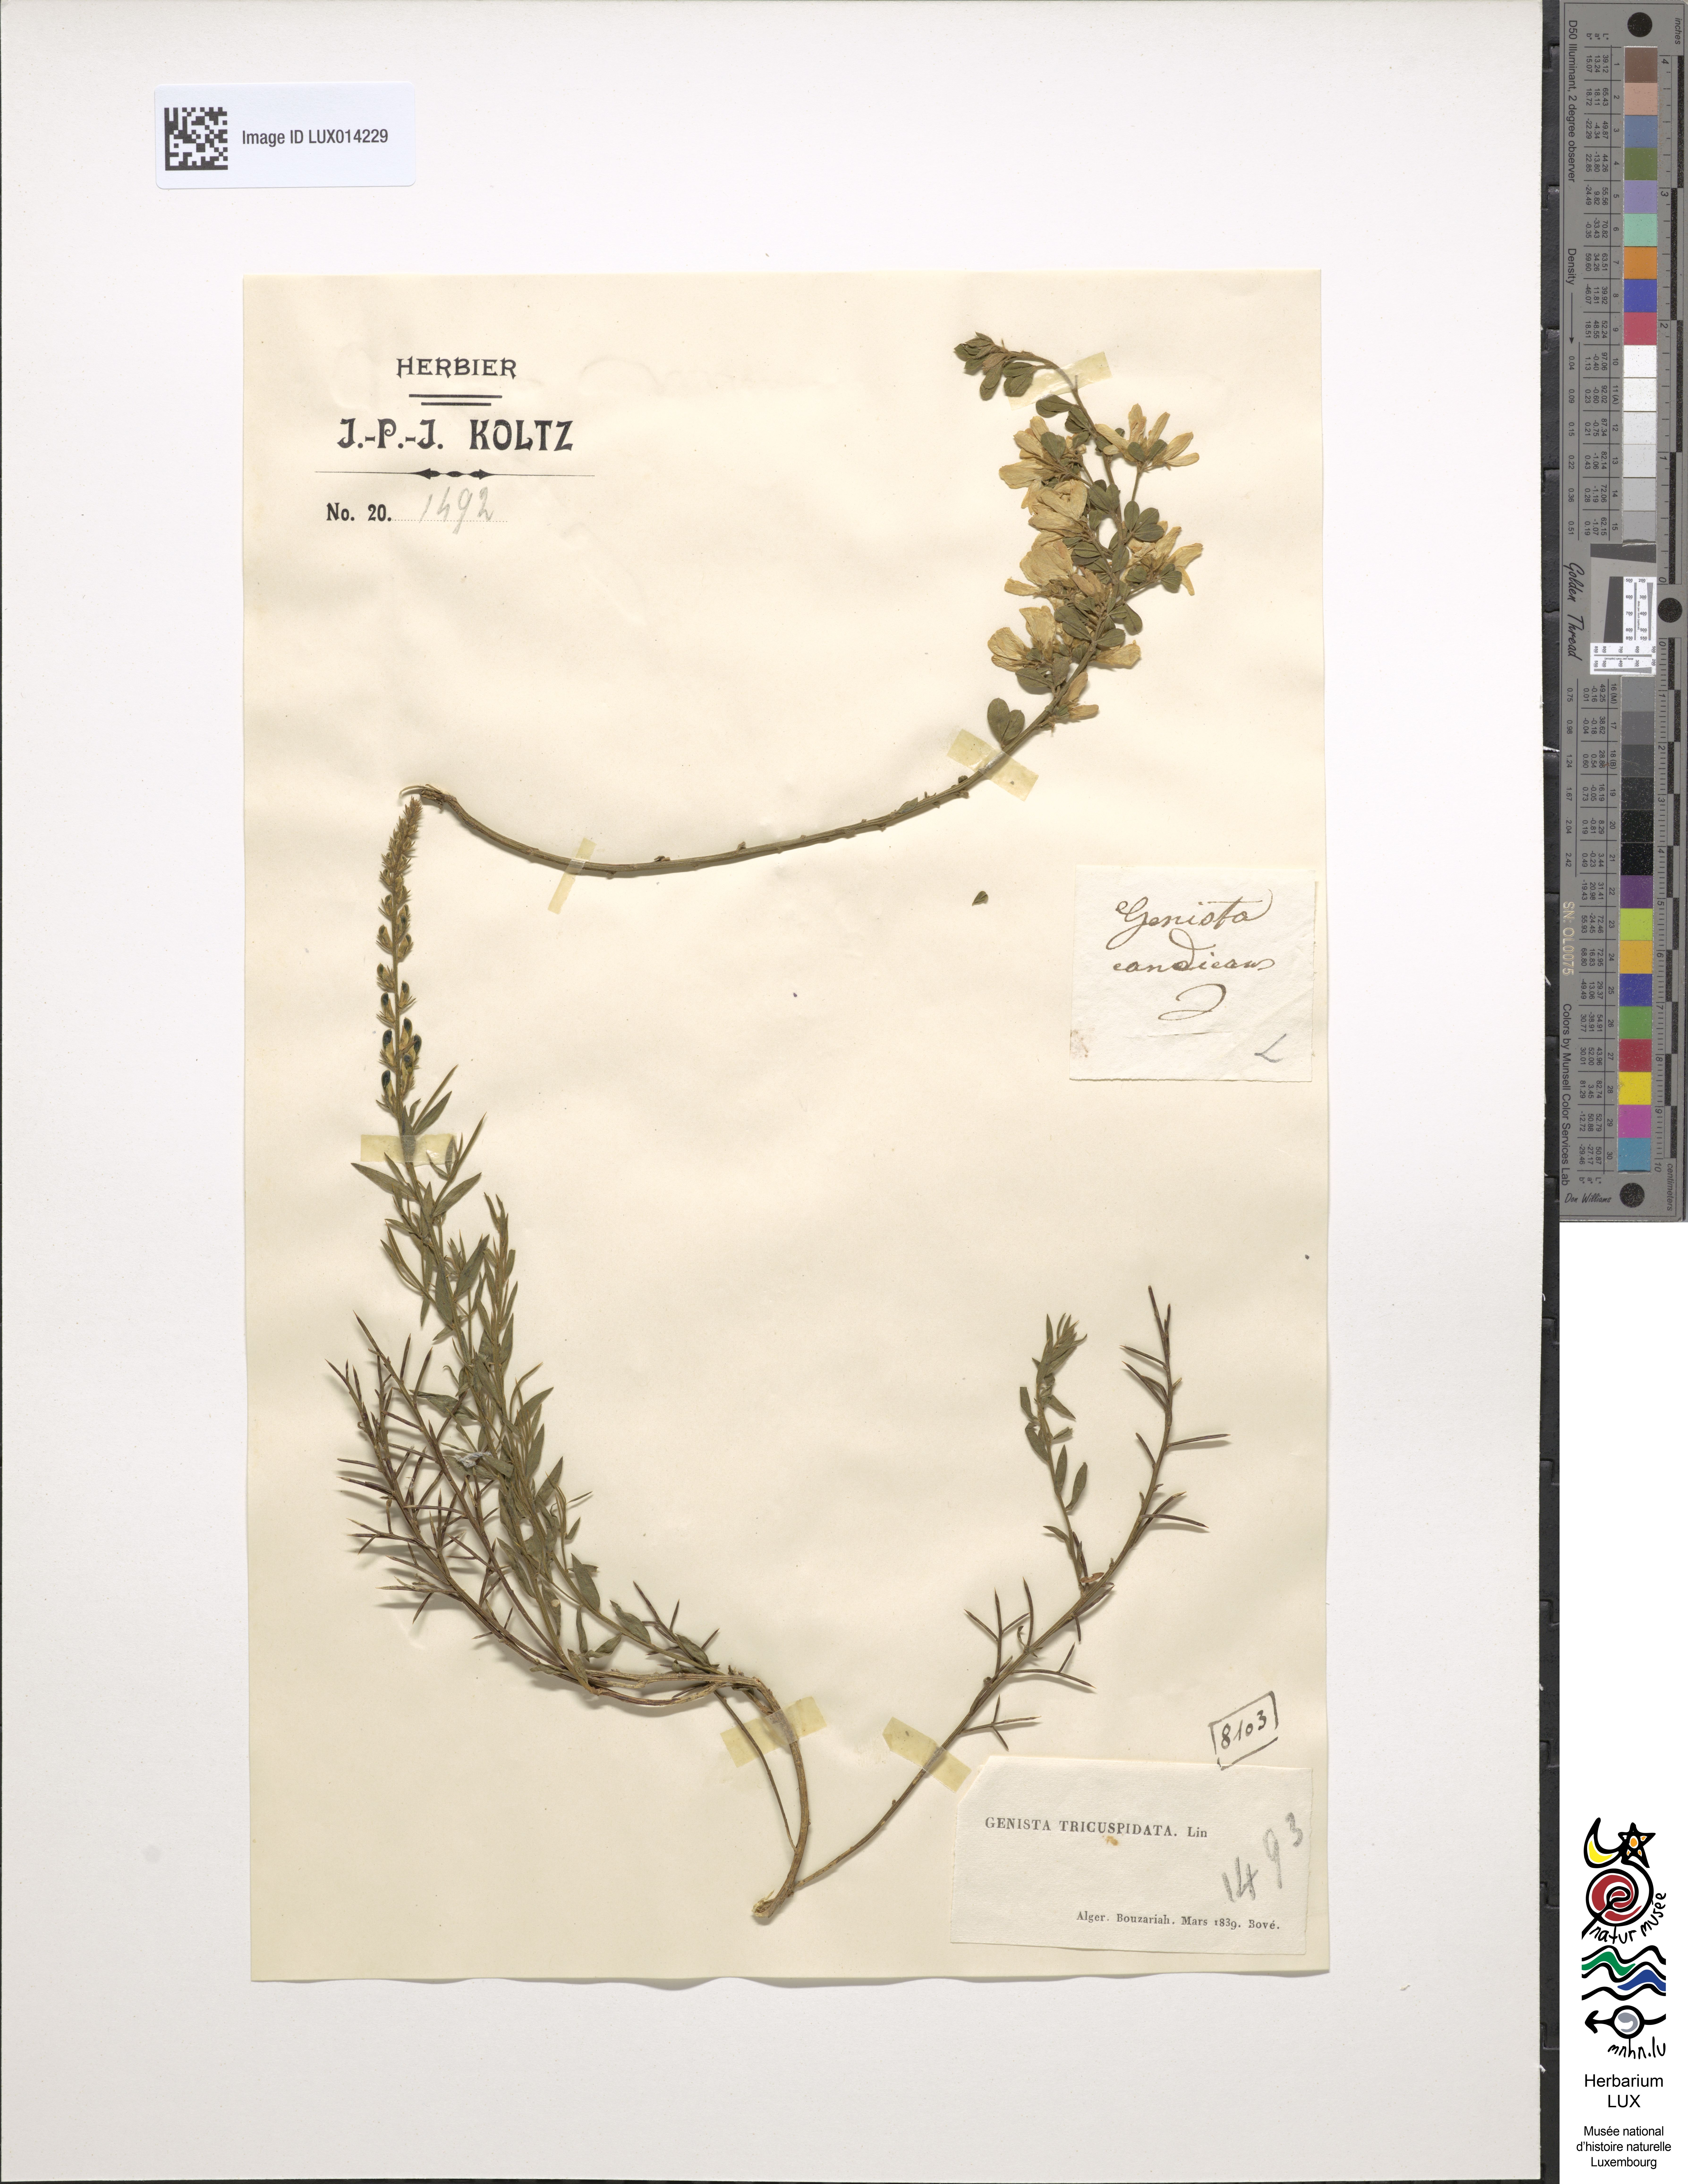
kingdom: Plantae
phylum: Tracheophyta
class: Magnoliopsida
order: Fabales
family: Fabaceae
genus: Genista
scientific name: Genista tricuspidata
